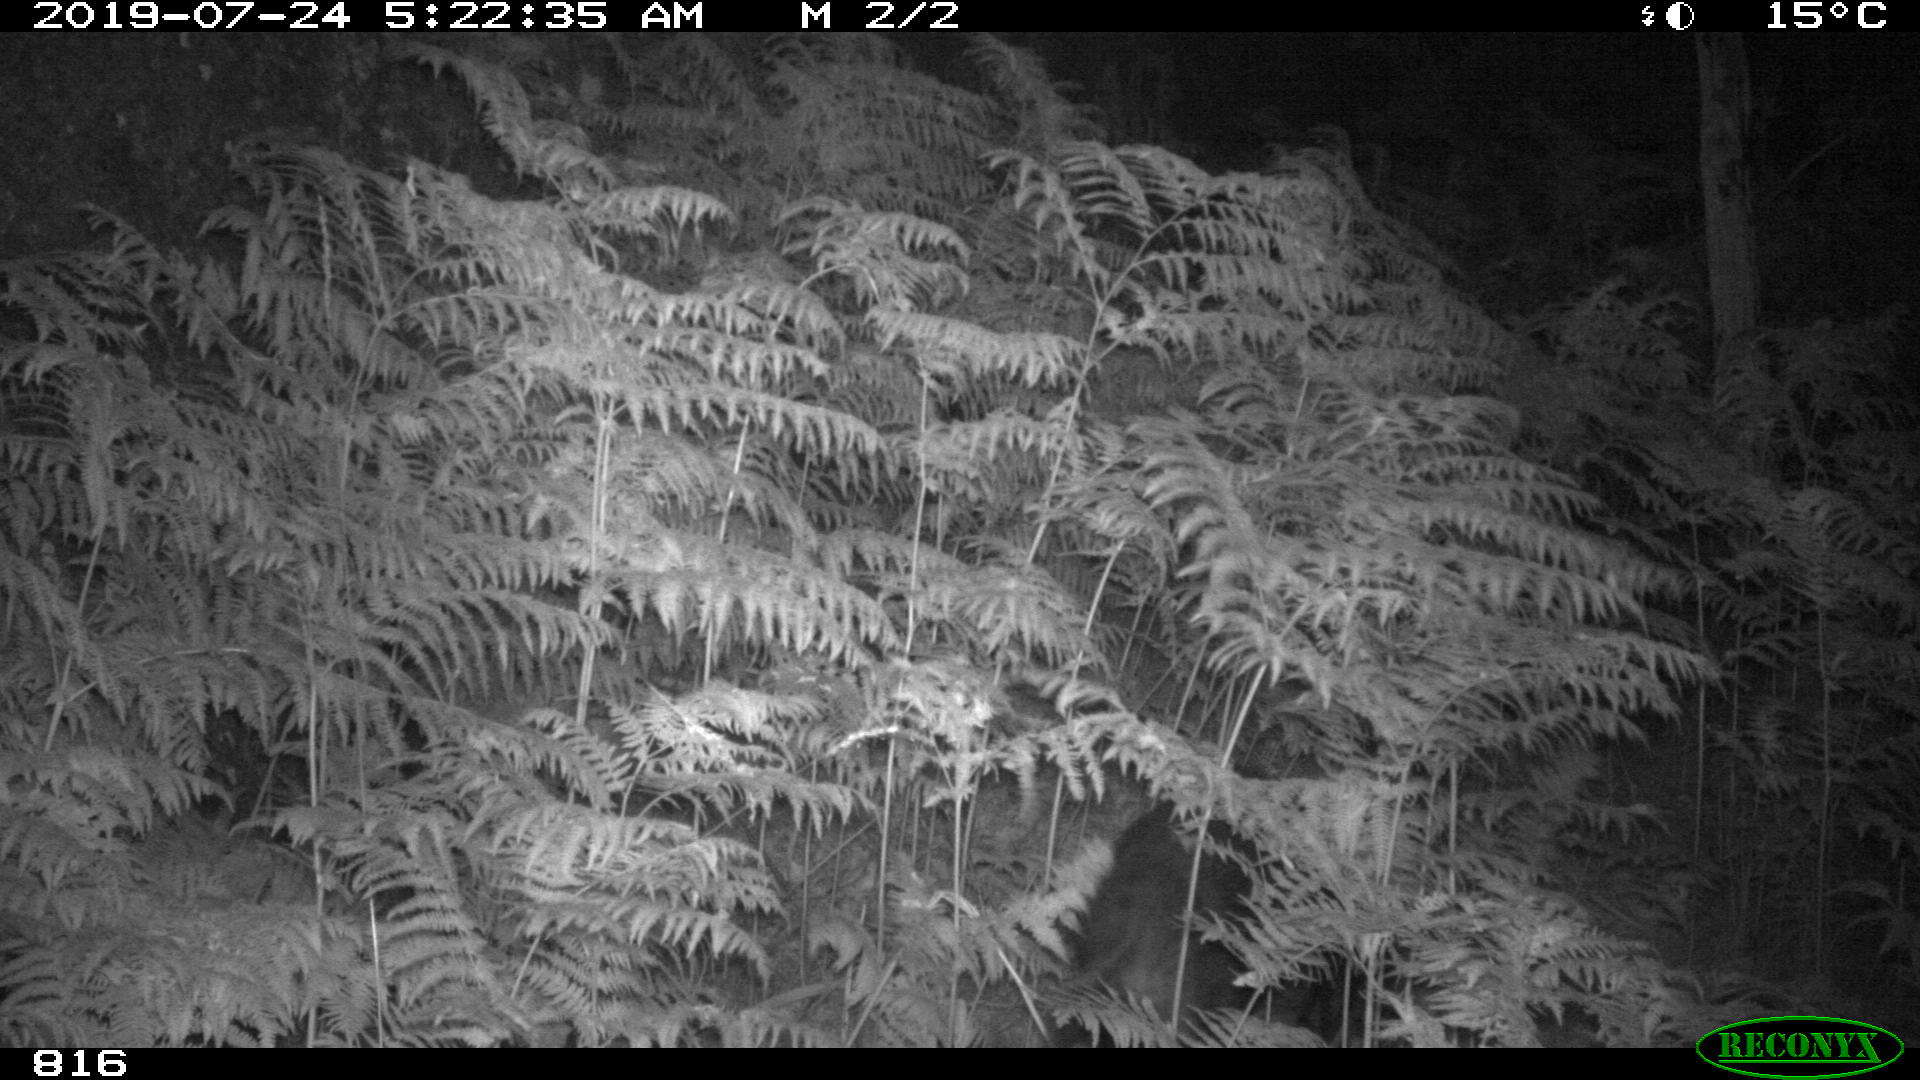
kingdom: Animalia
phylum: Chordata
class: Mammalia
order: Artiodactyla
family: Suidae
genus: Sus
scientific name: Sus scrofa
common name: Wild boar
